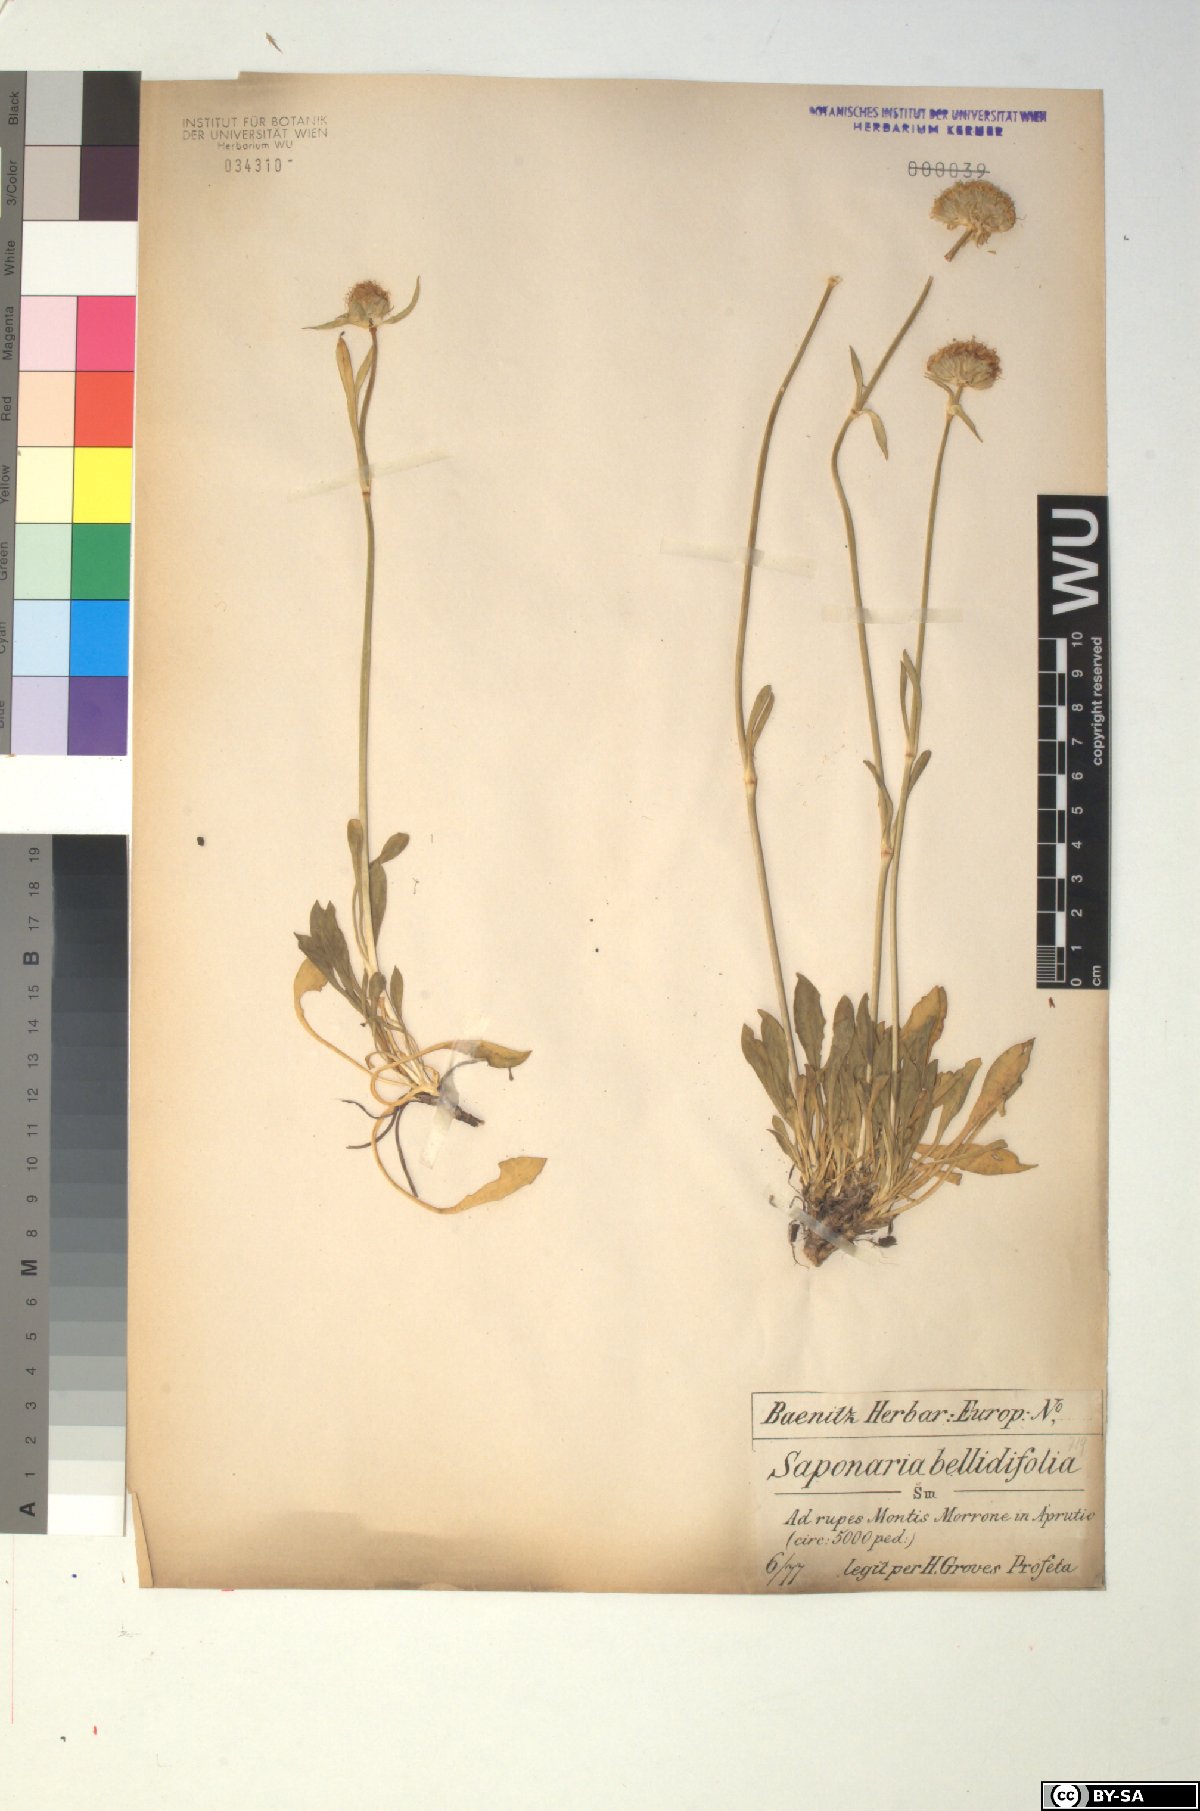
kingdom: Plantae
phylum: Tracheophyta
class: Magnoliopsida
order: Caryophyllales
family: Caryophyllaceae
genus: Saponaria
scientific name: Saponaria bellidifolia
